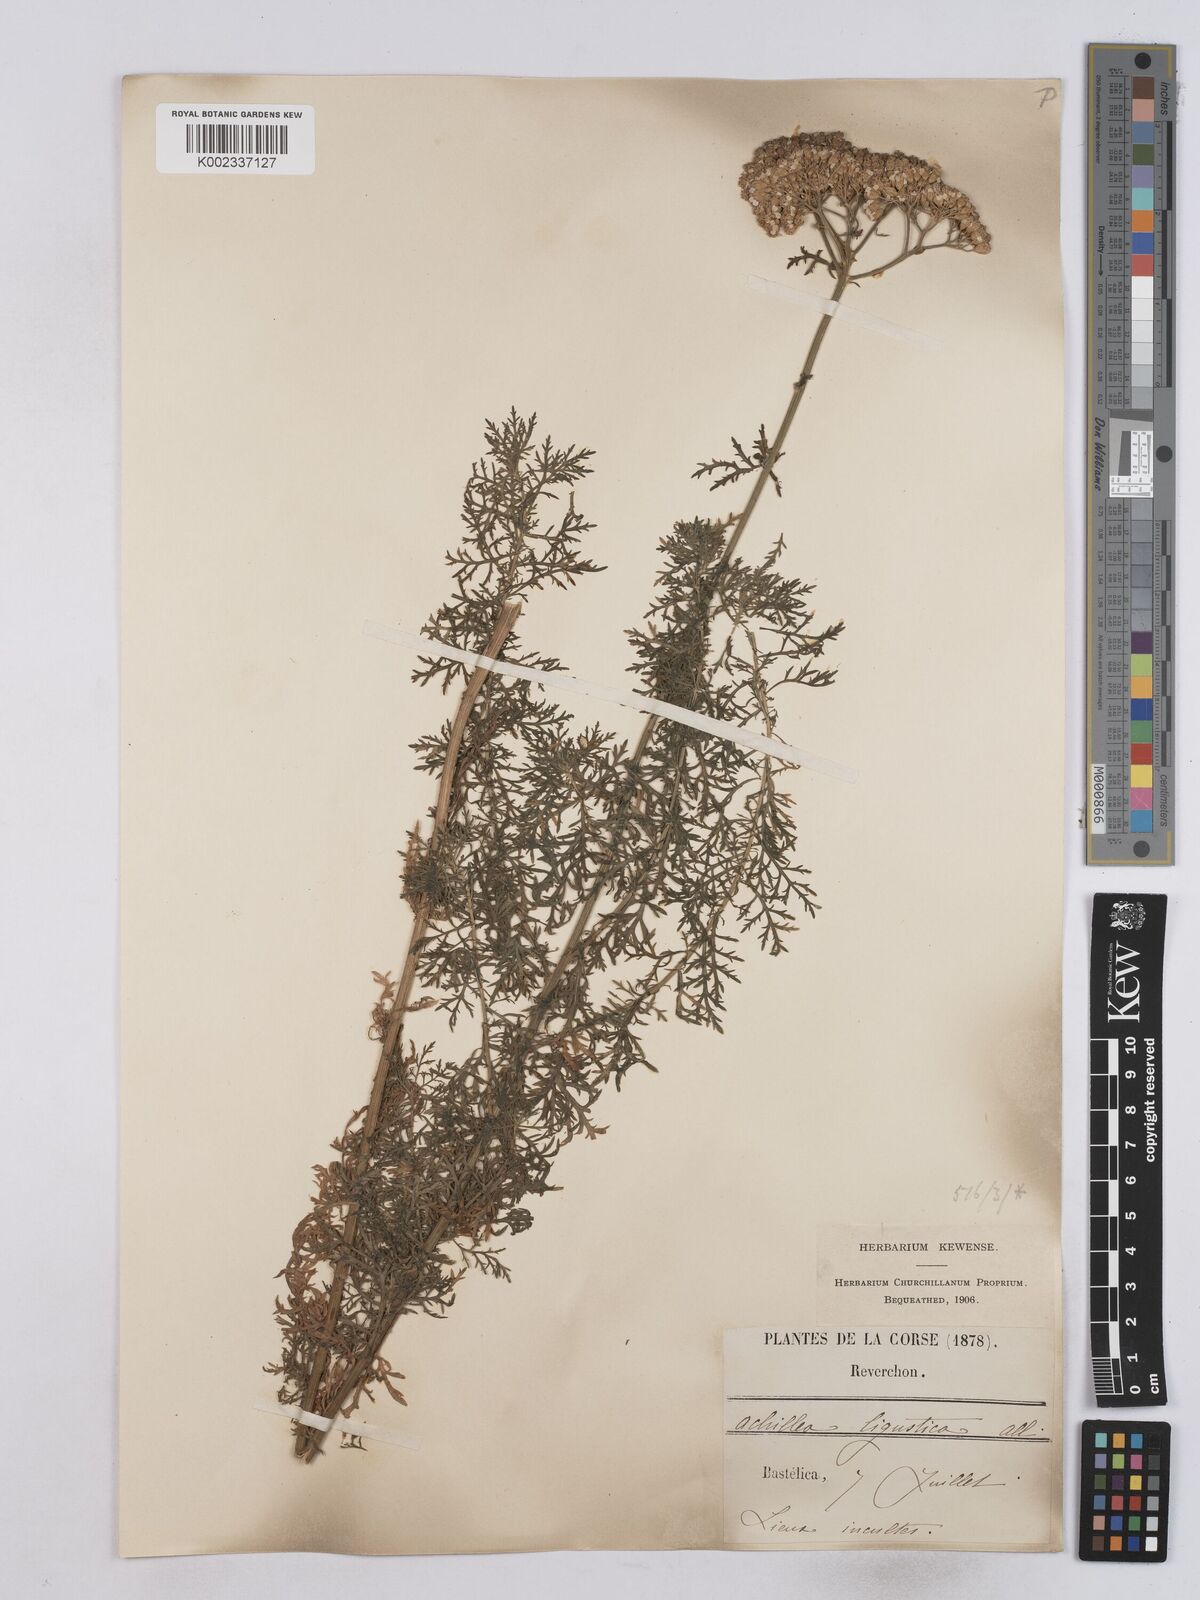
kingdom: Plantae
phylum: Tracheophyta
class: Magnoliopsida
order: Asterales
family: Asteraceae
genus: Achillea
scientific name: Achillea ligustica
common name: Southern yarrow
